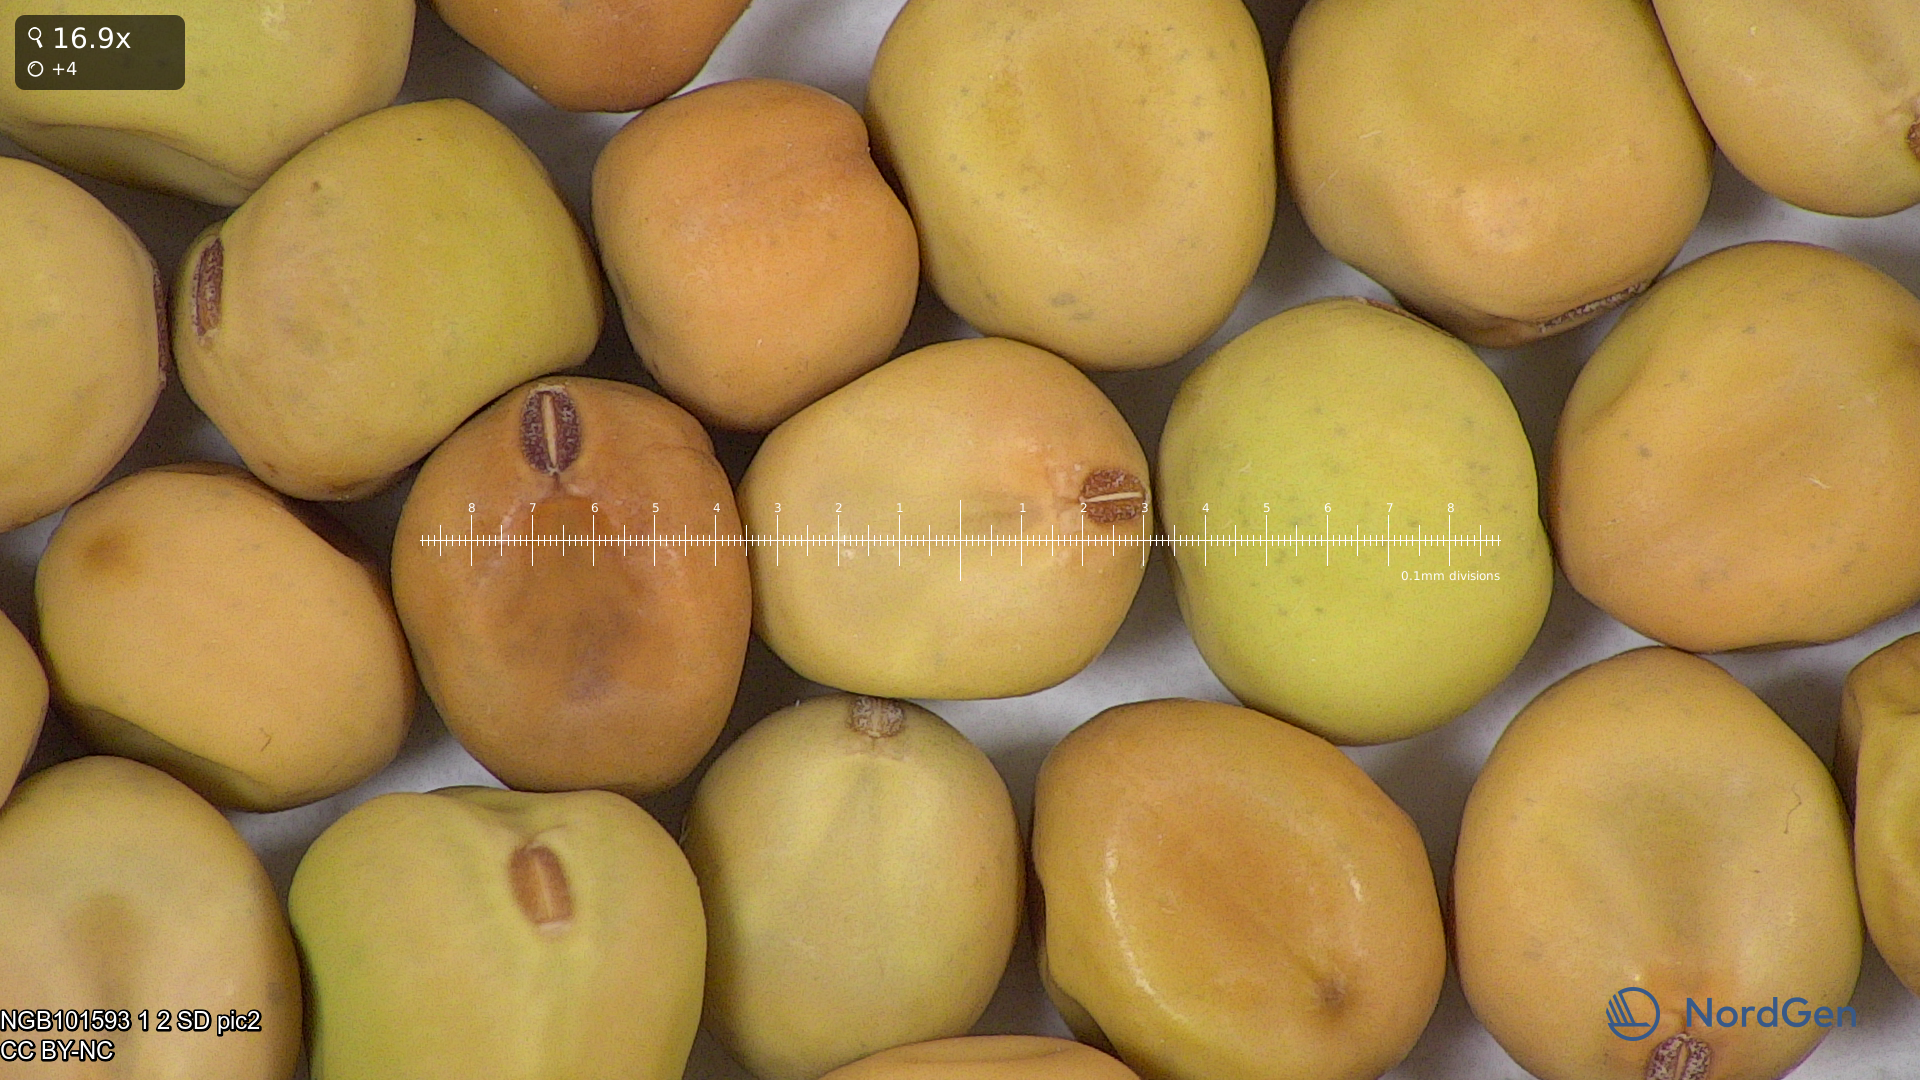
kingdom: Plantae
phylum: Tracheophyta
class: Magnoliopsida
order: Fabales
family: Fabaceae
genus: Lathyrus
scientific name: Lathyrus oleraceus
